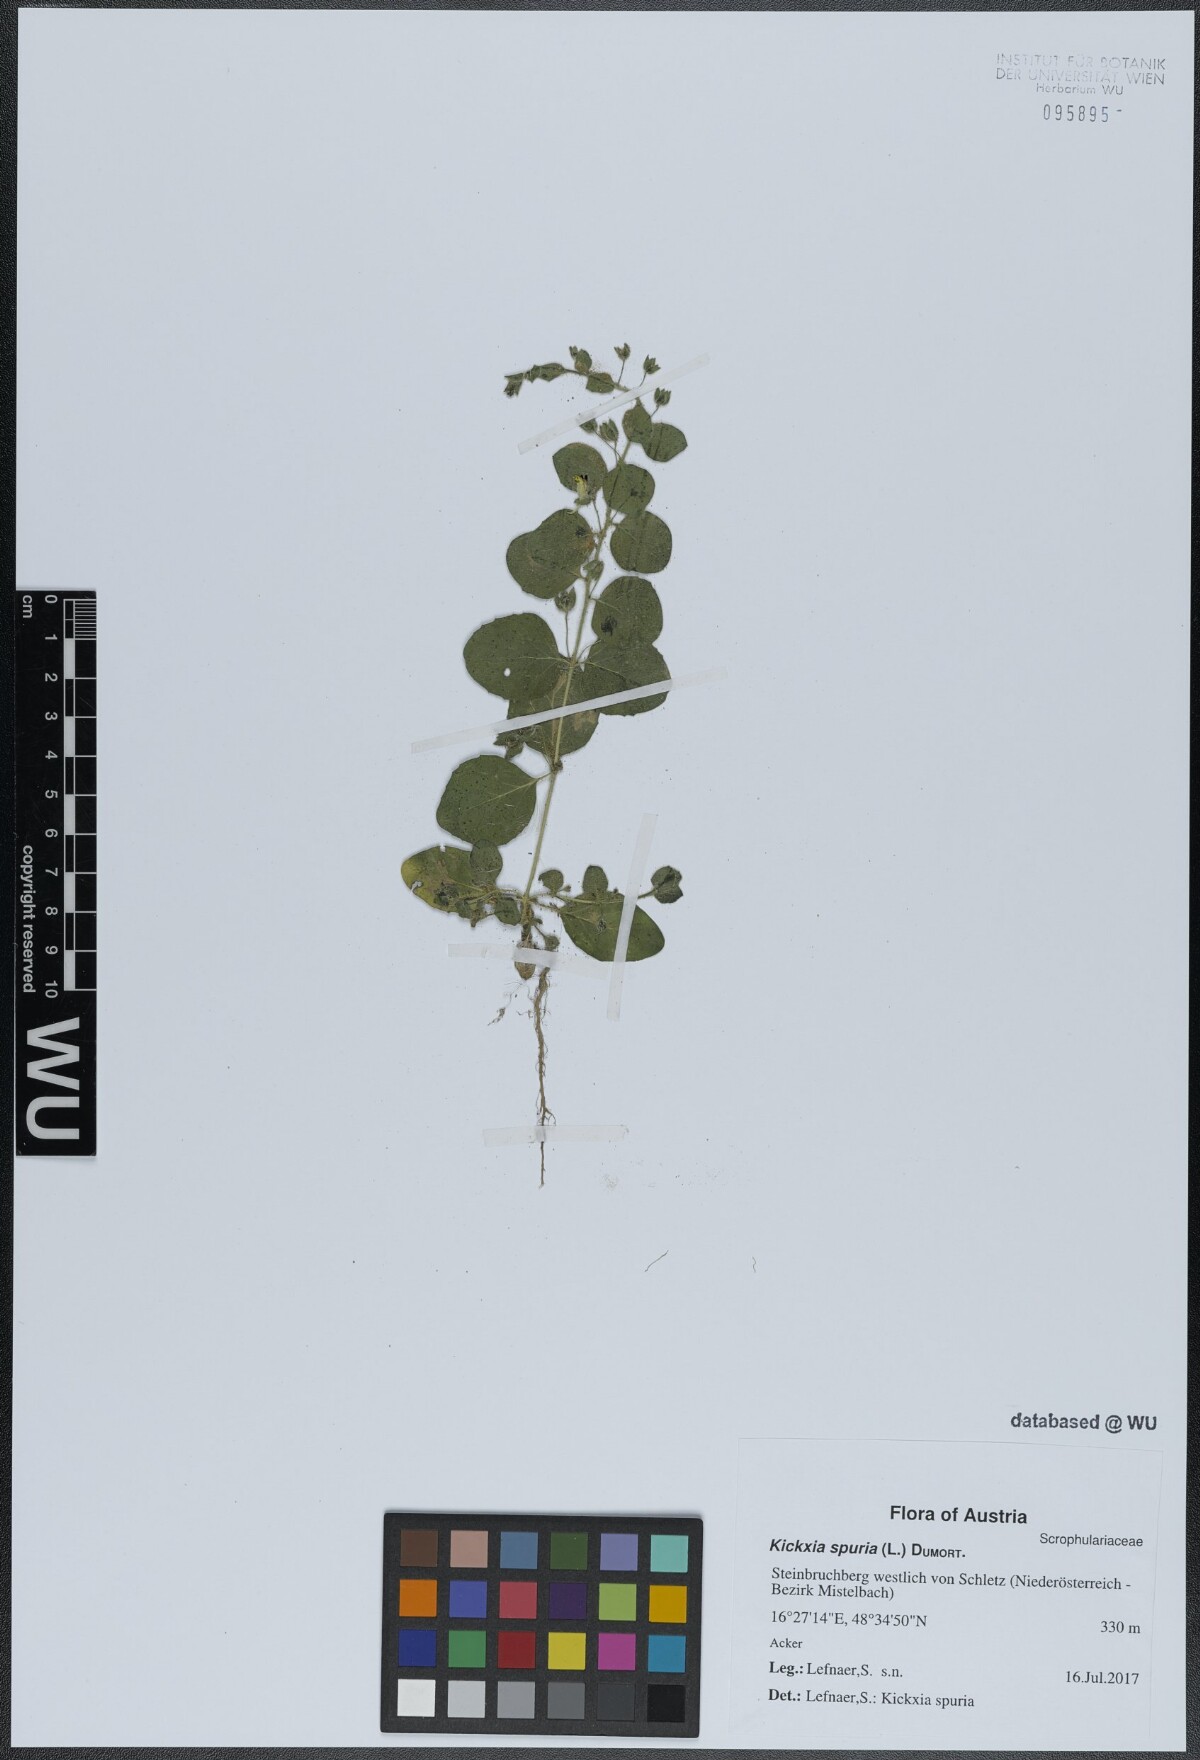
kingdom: Plantae
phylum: Tracheophyta
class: Magnoliopsida
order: Lamiales
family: Plantaginaceae
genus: Kickxia
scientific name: Kickxia spuria
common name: Round-leaved fluellen
